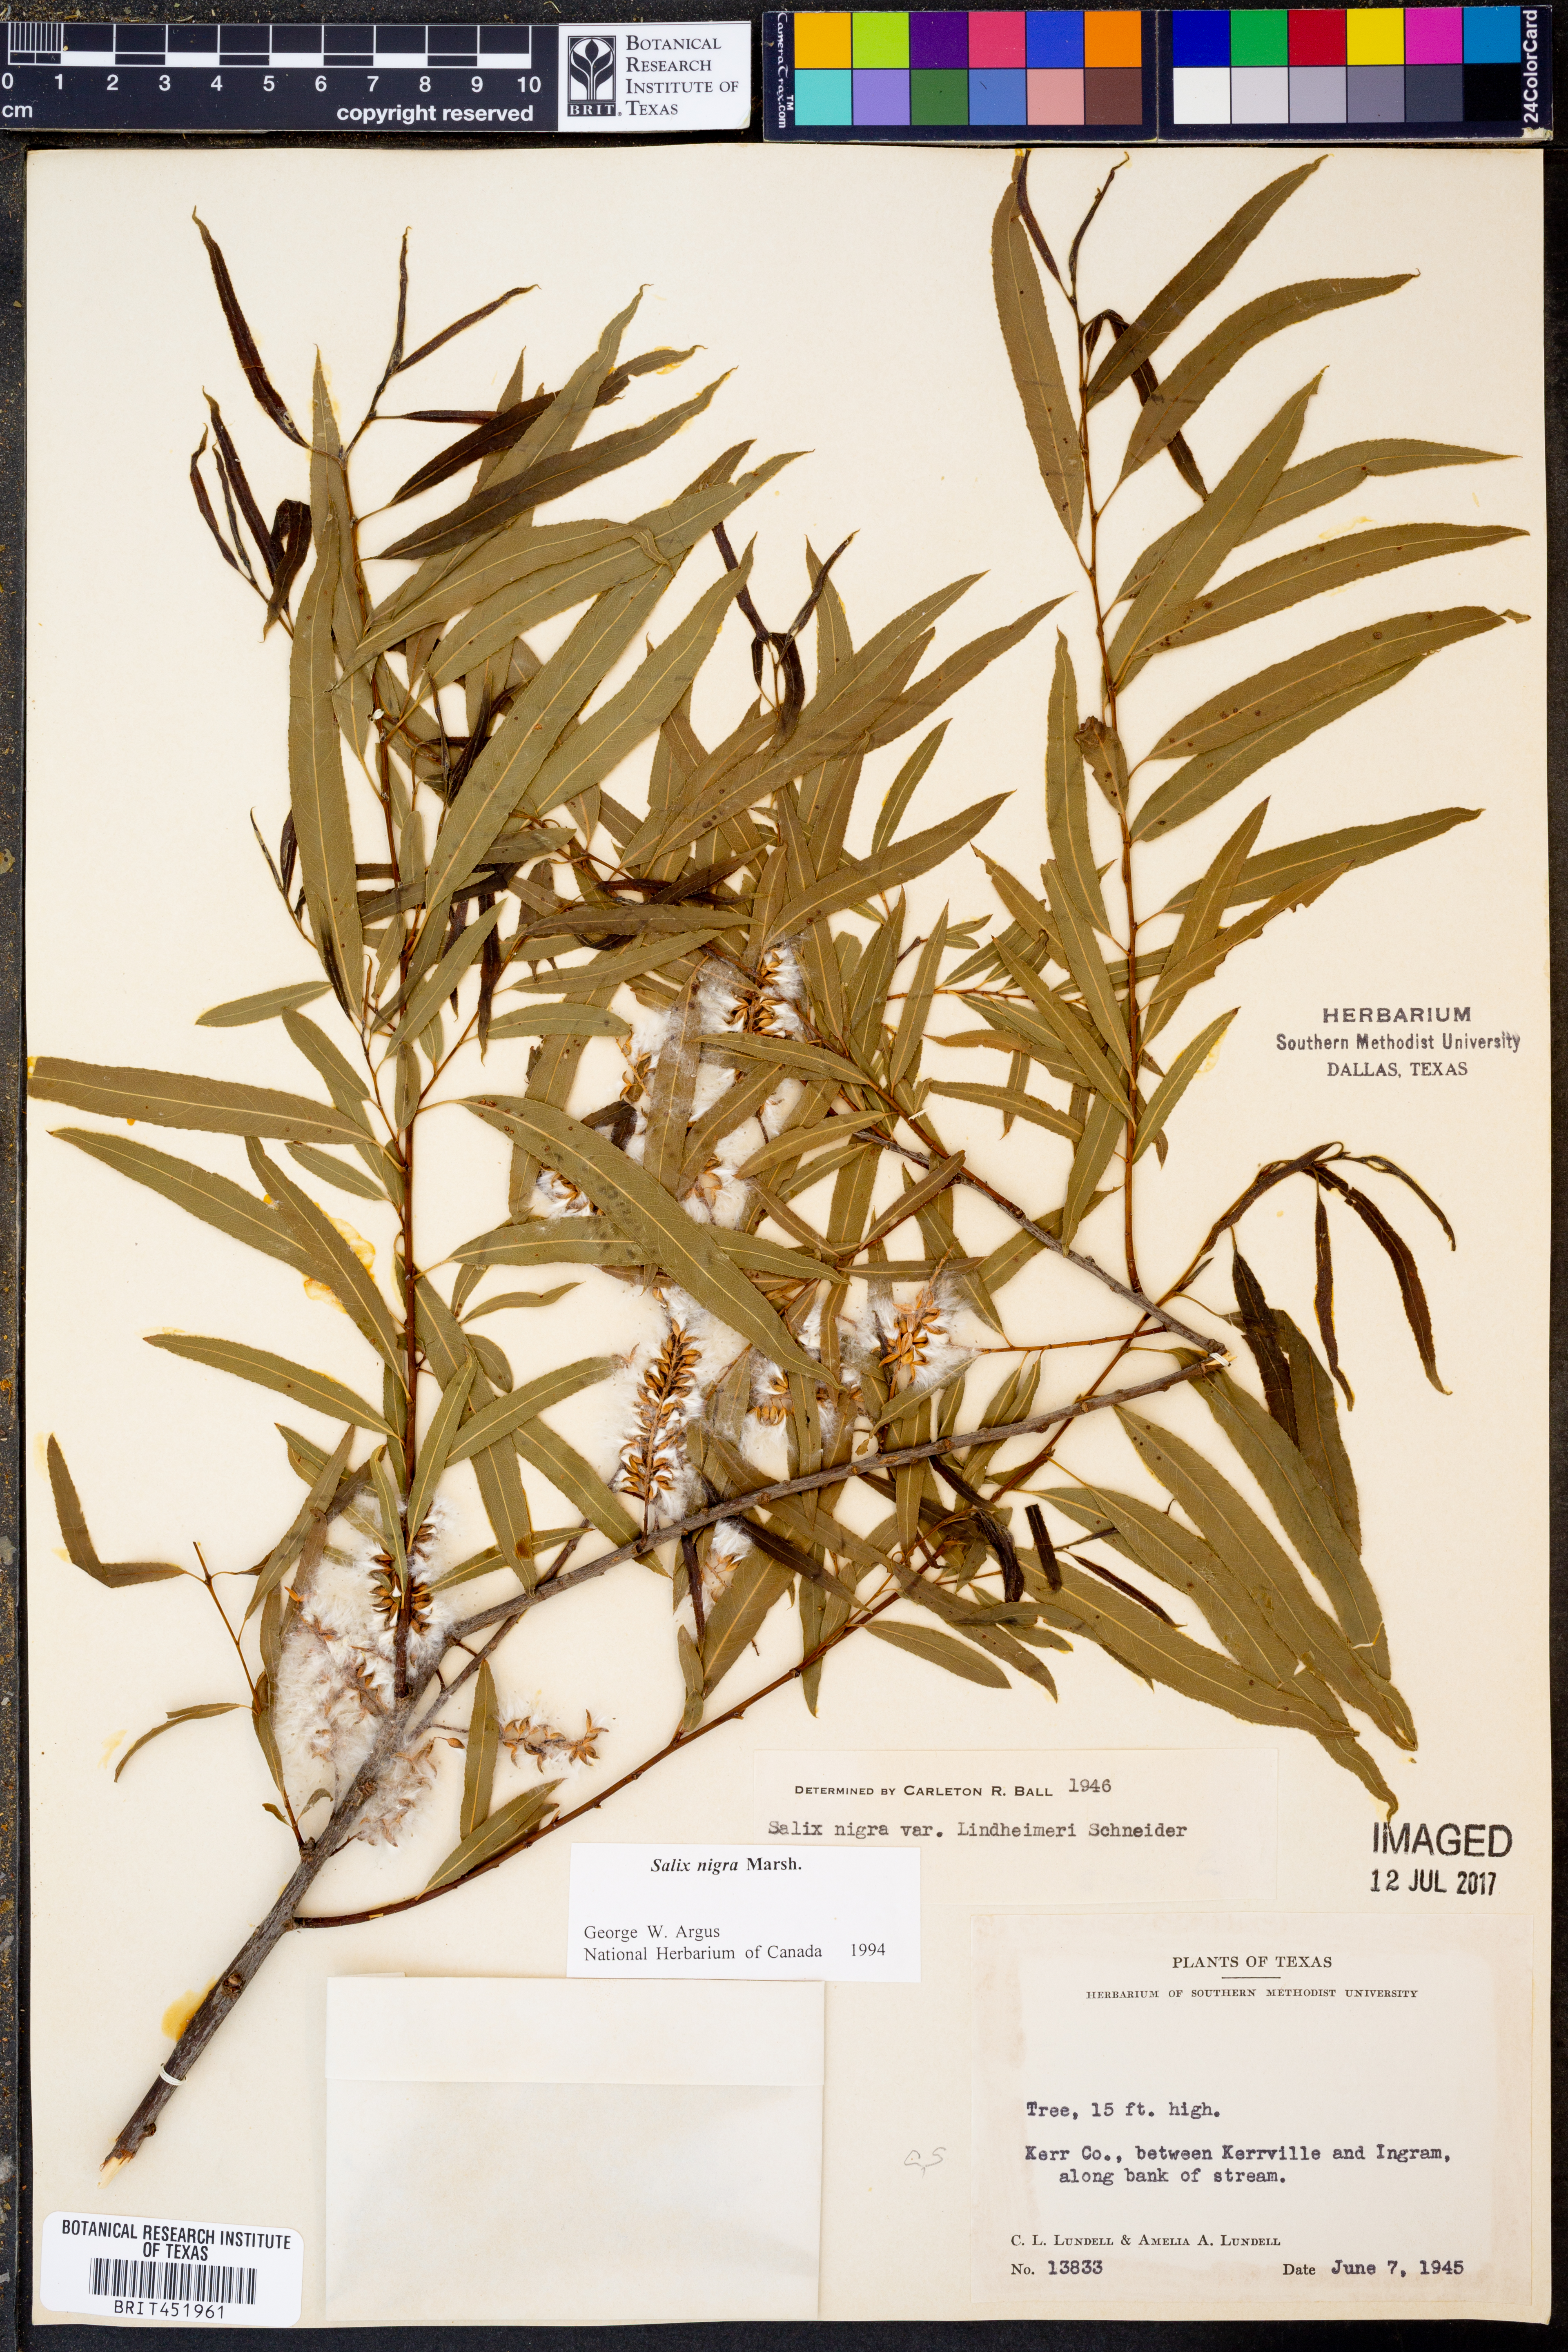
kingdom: Plantae
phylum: Tracheophyta
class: Magnoliopsida
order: Malpighiales
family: Salicaceae
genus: Salix
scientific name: Salix nigra
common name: Black willow
